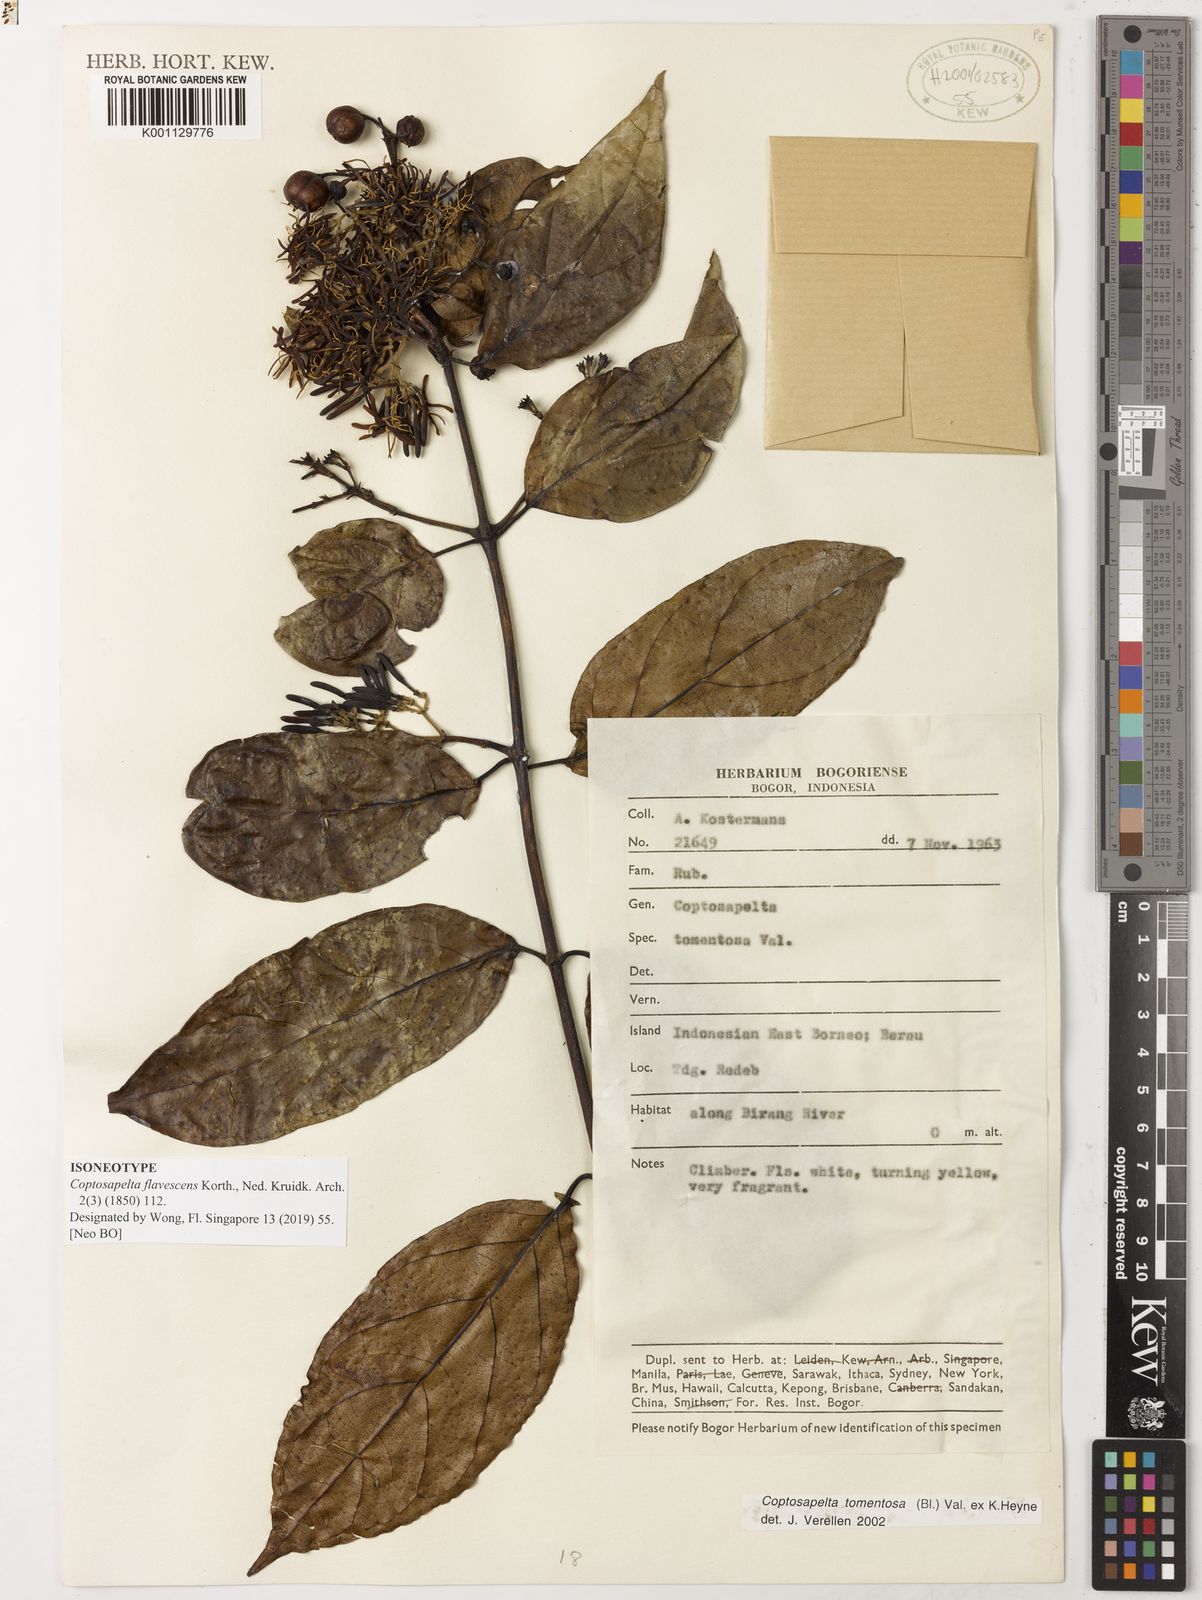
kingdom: Plantae
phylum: Tracheophyta
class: Magnoliopsida
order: Gentianales
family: Rubiaceae
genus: Coptosapelta
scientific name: Coptosapelta tomentosa
